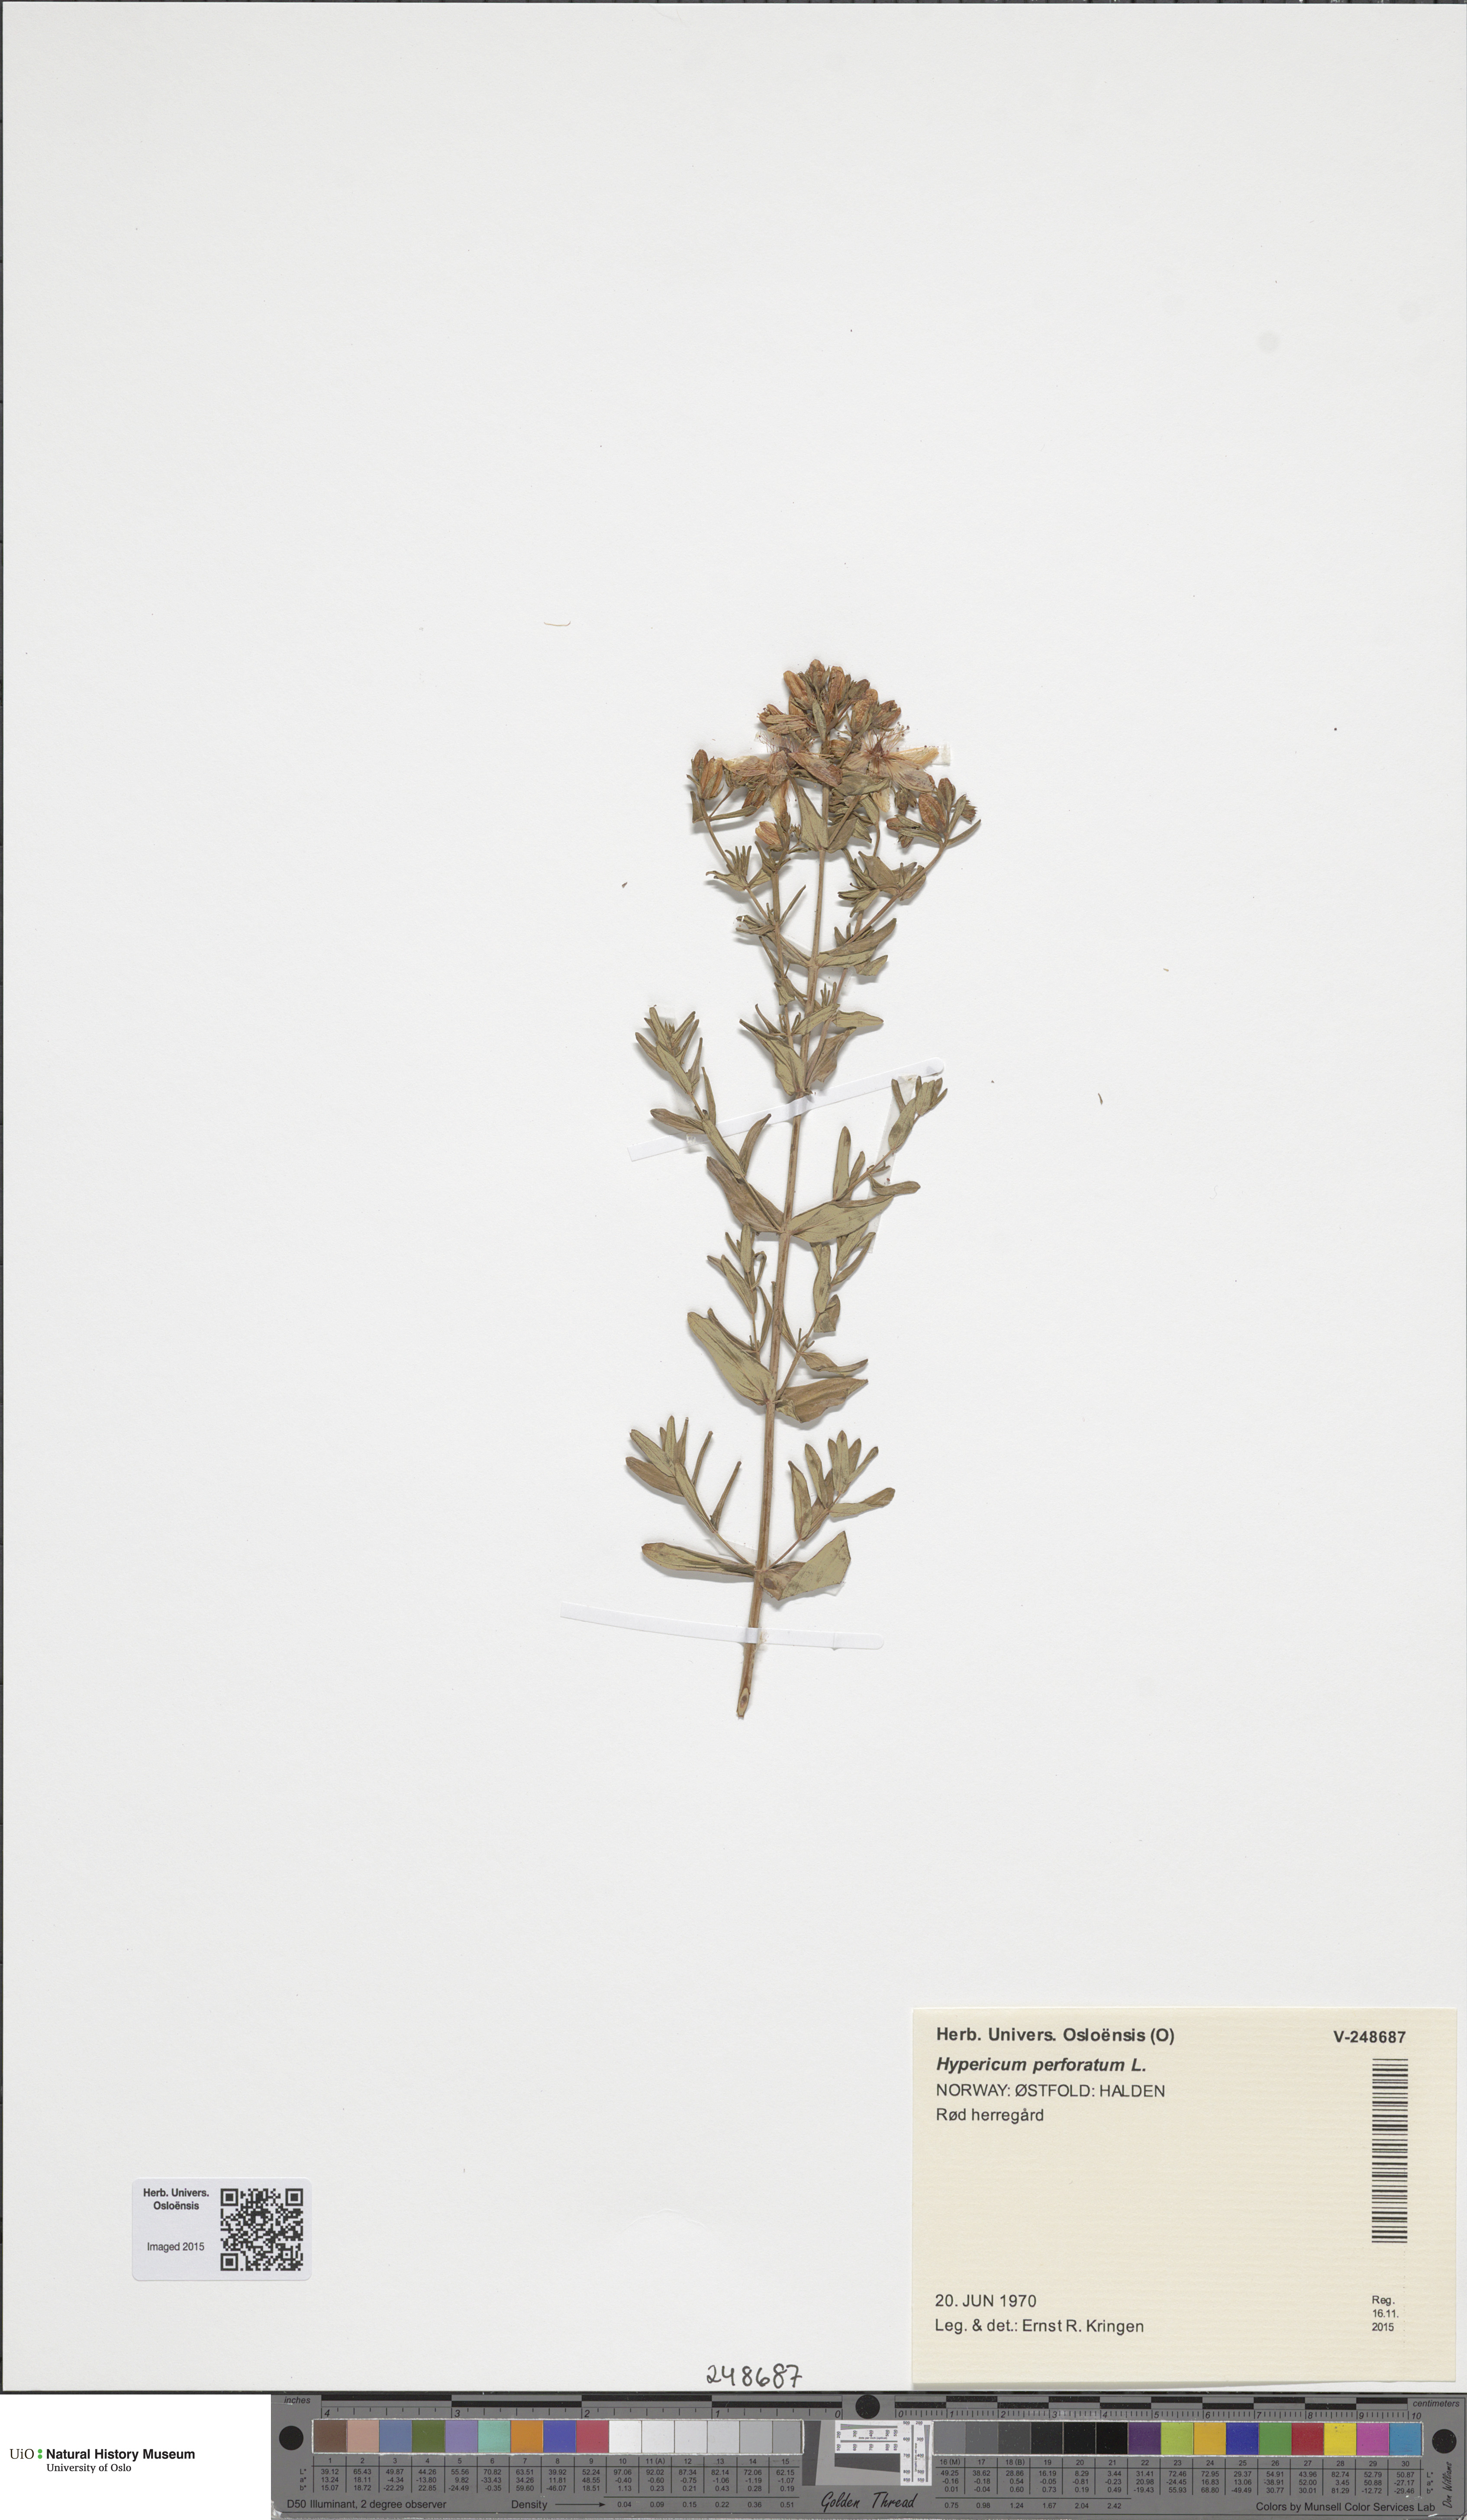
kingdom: Plantae
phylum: Tracheophyta
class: Magnoliopsida
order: Malpighiales
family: Hypericaceae
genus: Hypericum
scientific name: Hypericum perforatum
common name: Common st. johnswort
